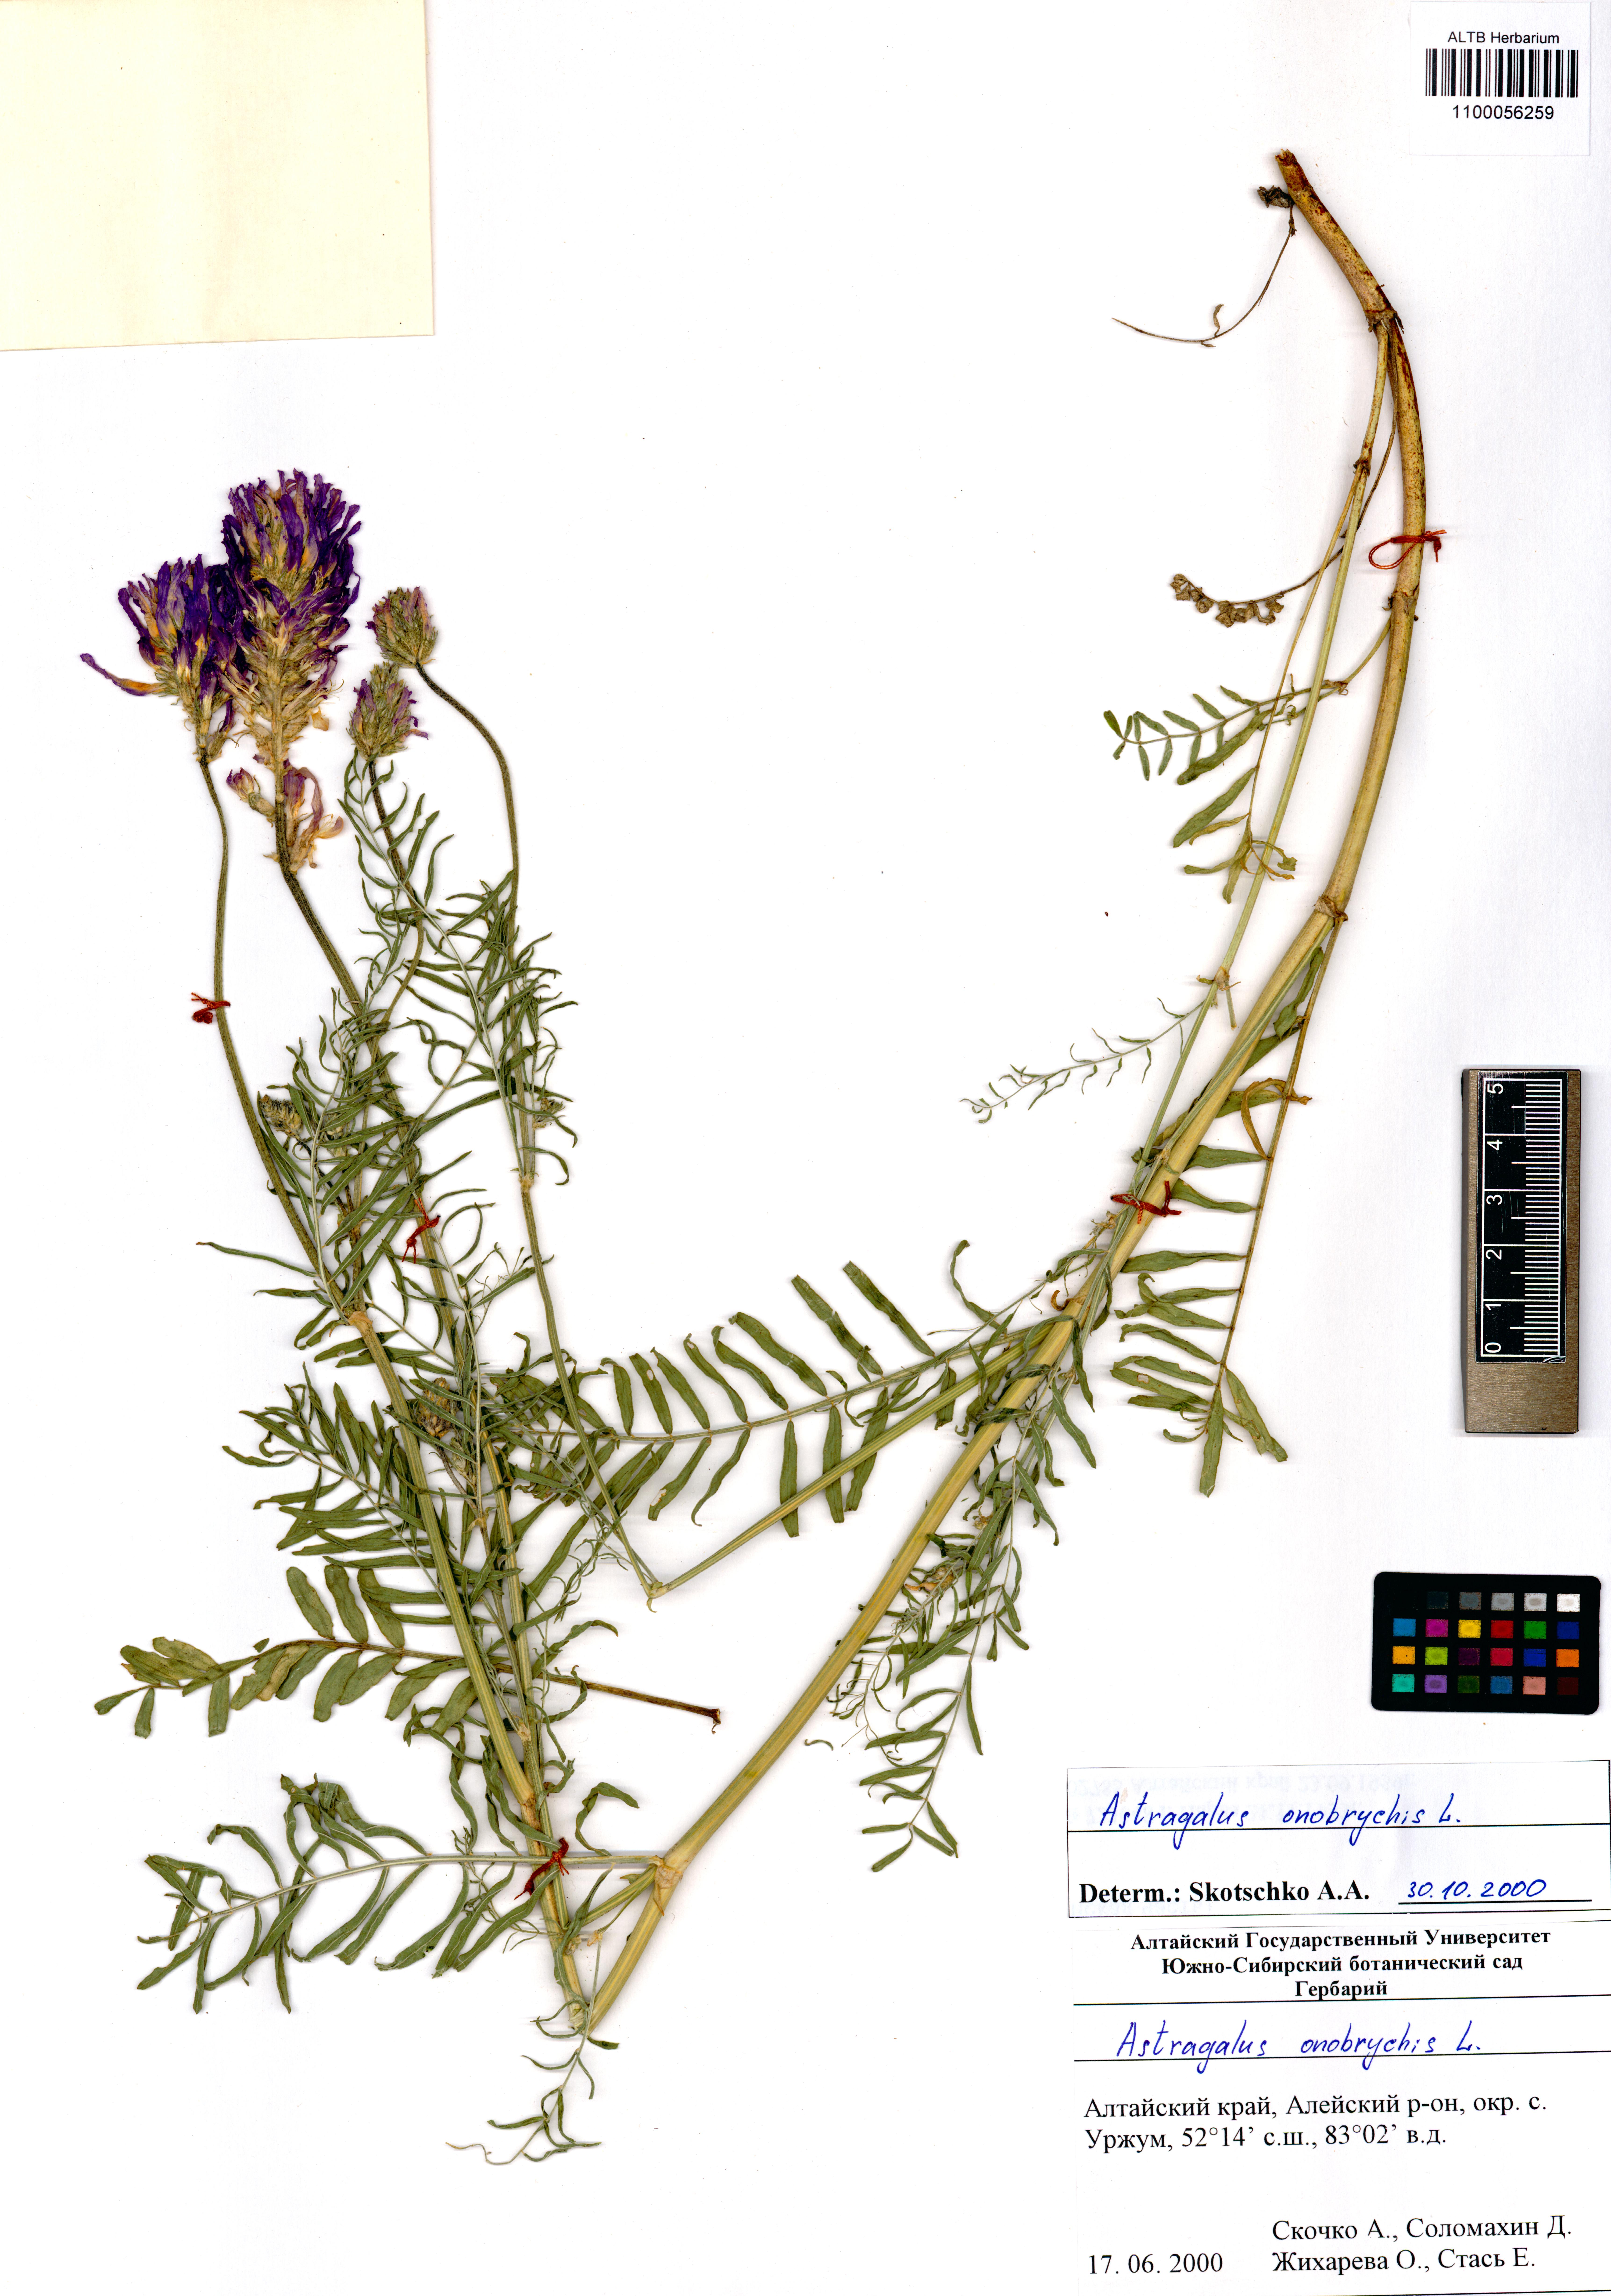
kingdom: Plantae
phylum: Tracheophyta
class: Magnoliopsida
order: Fabales
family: Fabaceae
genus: Astragalus
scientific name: Astragalus onobrychis
